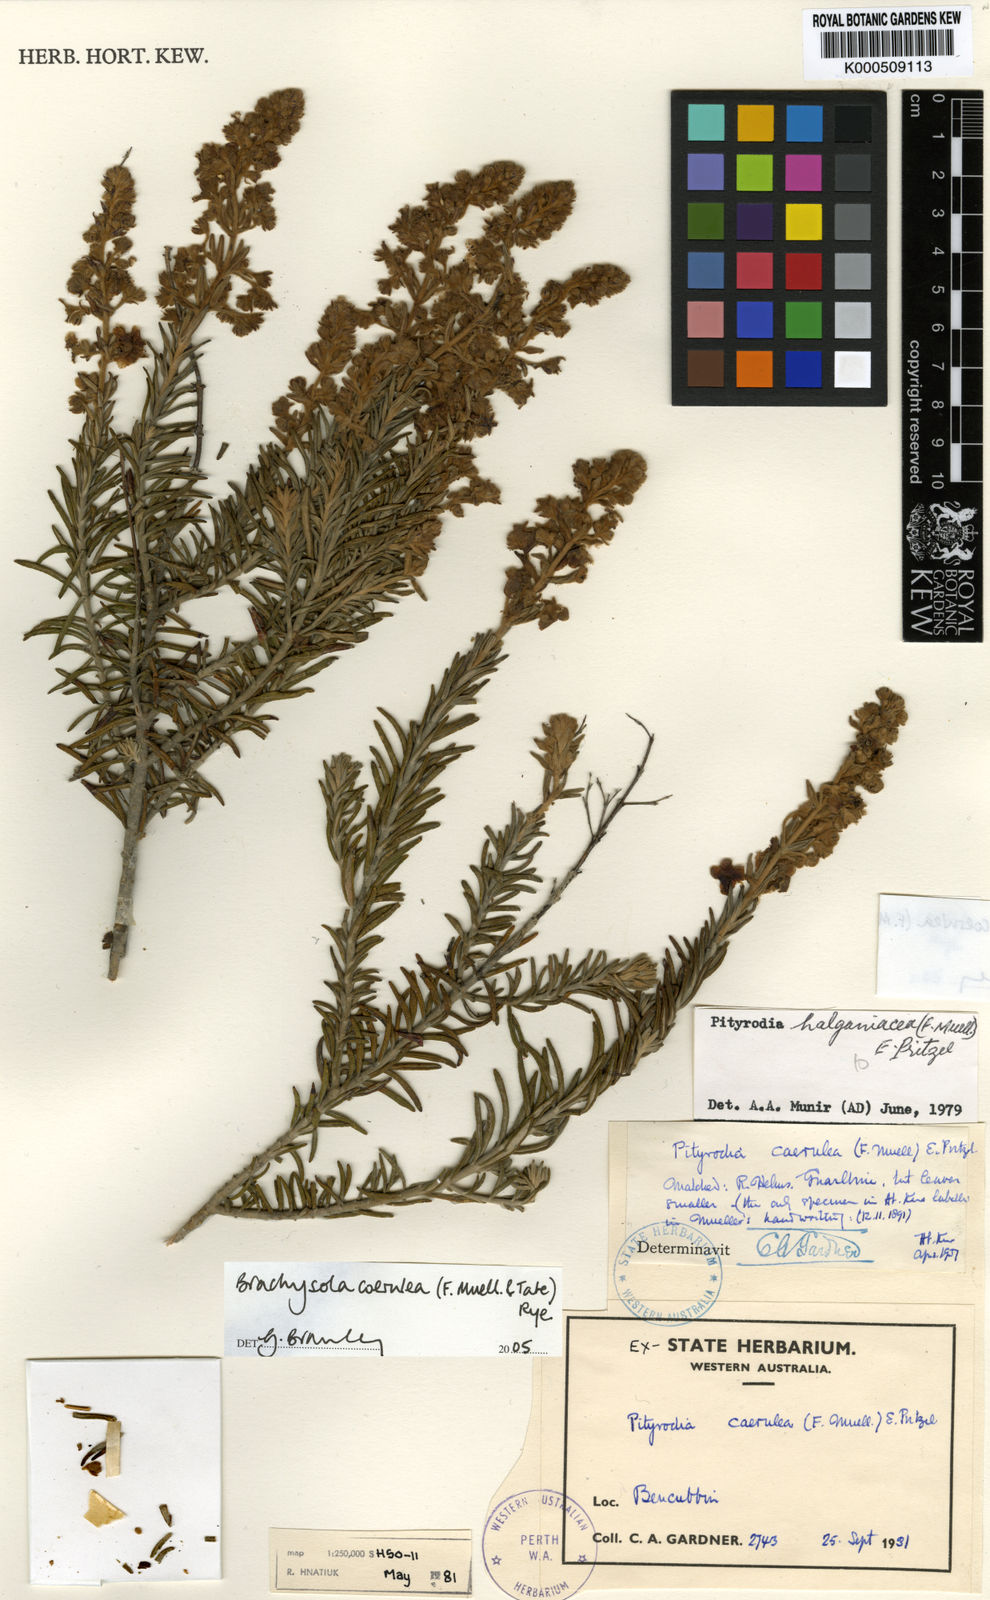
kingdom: Plantae
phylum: Tracheophyta
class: Magnoliopsida
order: Lamiales
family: Lamiaceae
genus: Brachysola
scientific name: Brachysola coerulea
